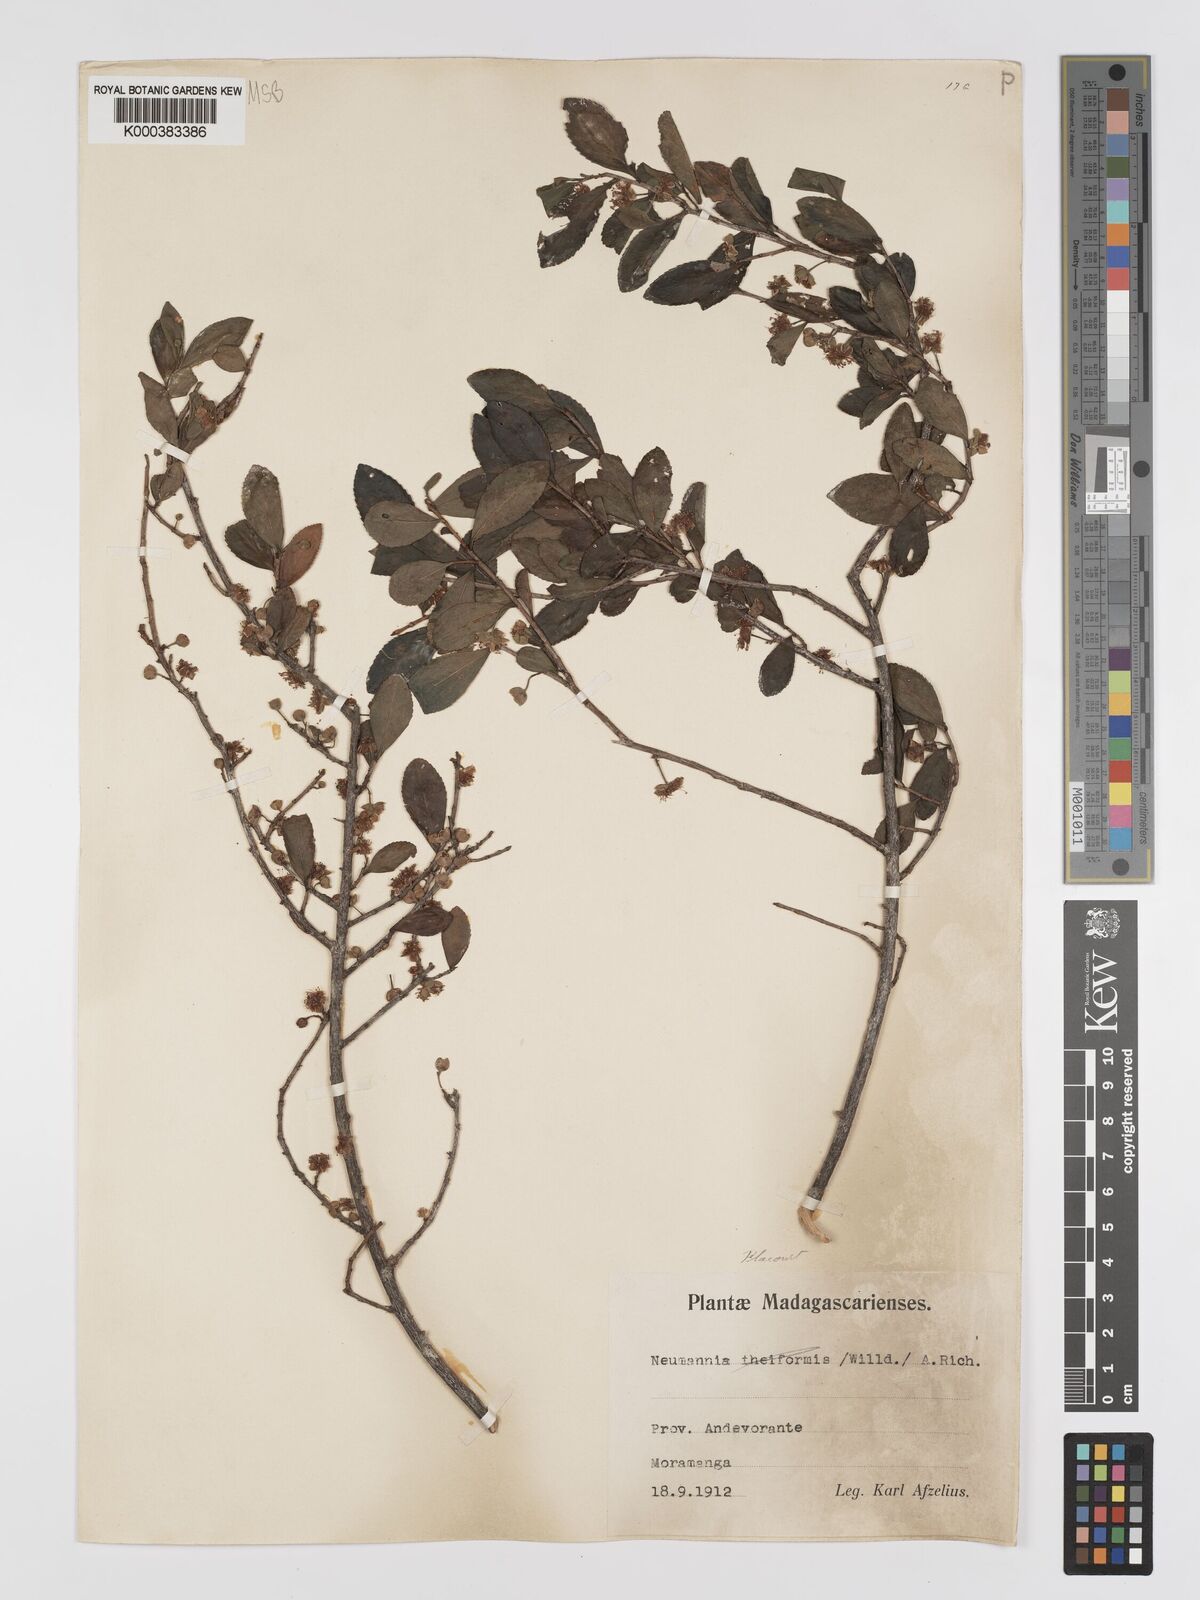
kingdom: Plantae
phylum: Tracheophyta
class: Magnoliopsida
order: Crossosomatales
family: Aphloiaceae
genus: Aphloia
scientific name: Aphloia theiformis
